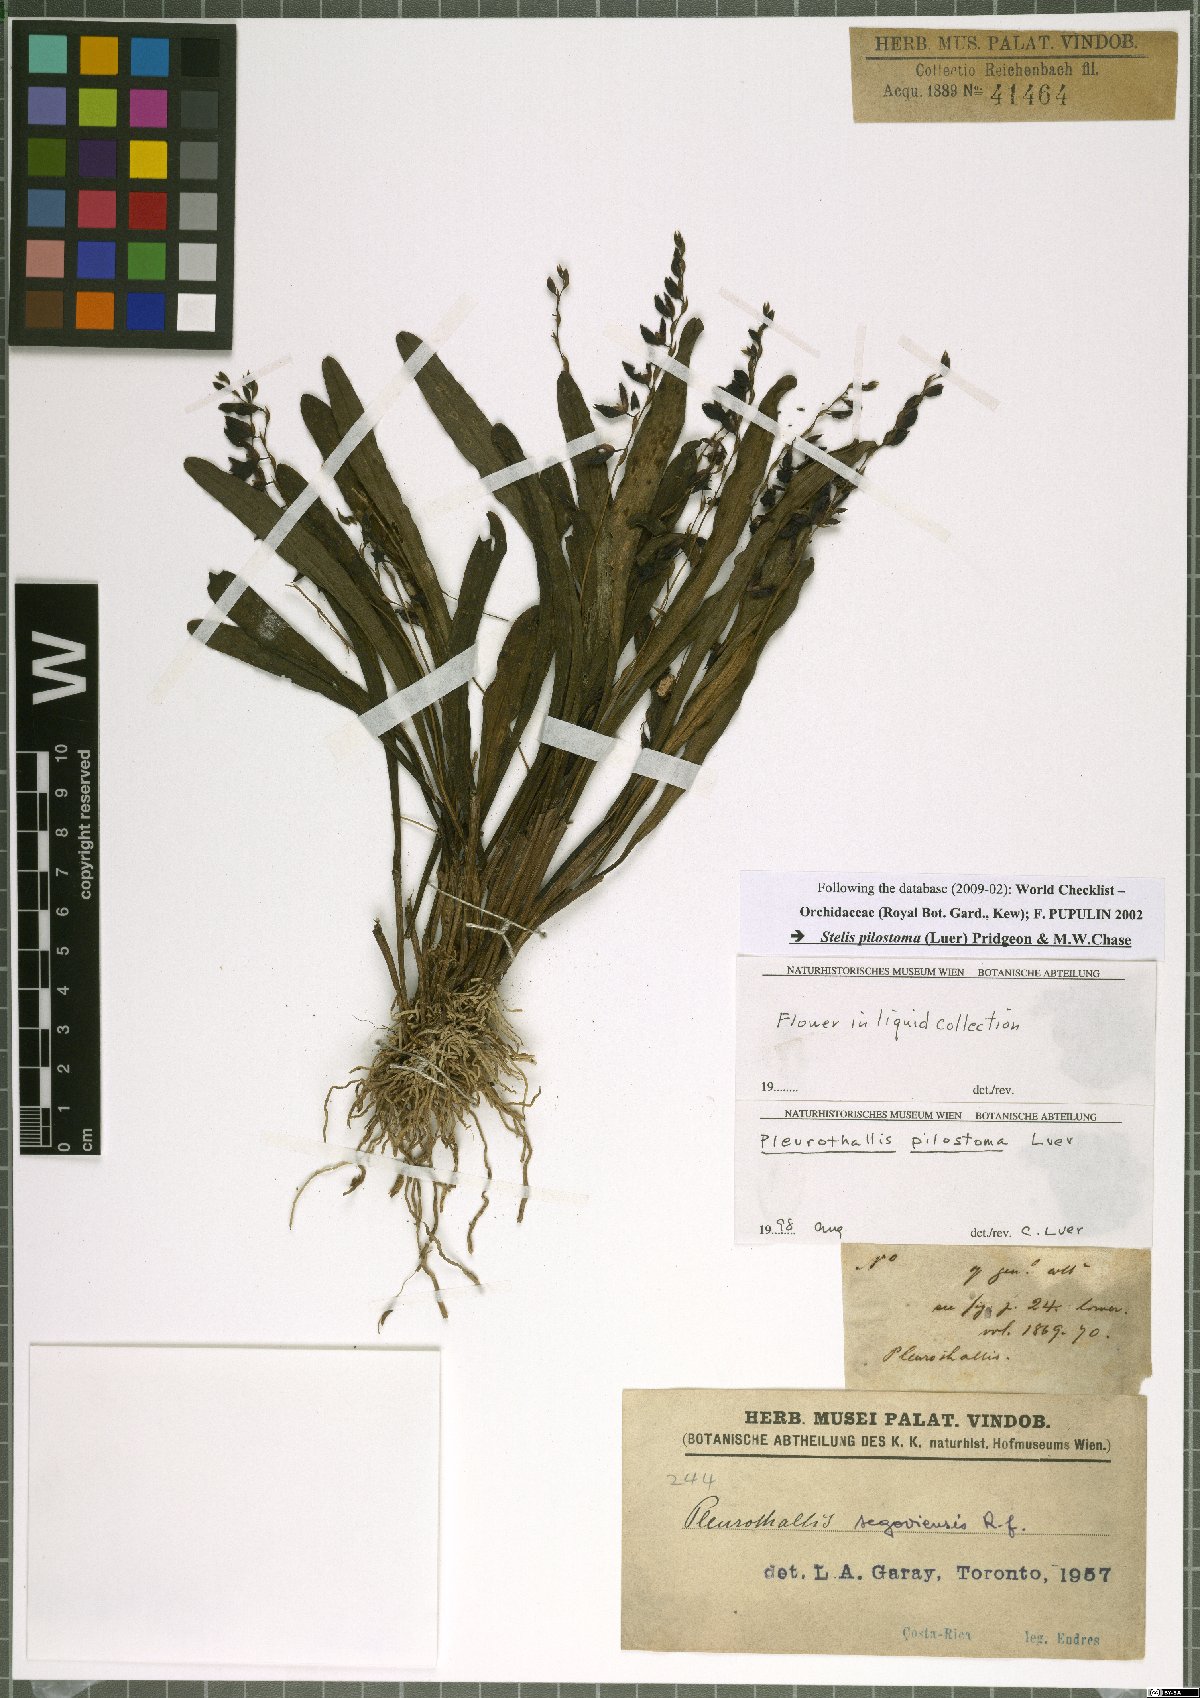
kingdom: Plantae
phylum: Tracheophyta
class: Liliopsida
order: Asparagales
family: Orchidaceae
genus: Stelis
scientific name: Stelis pilostoma
